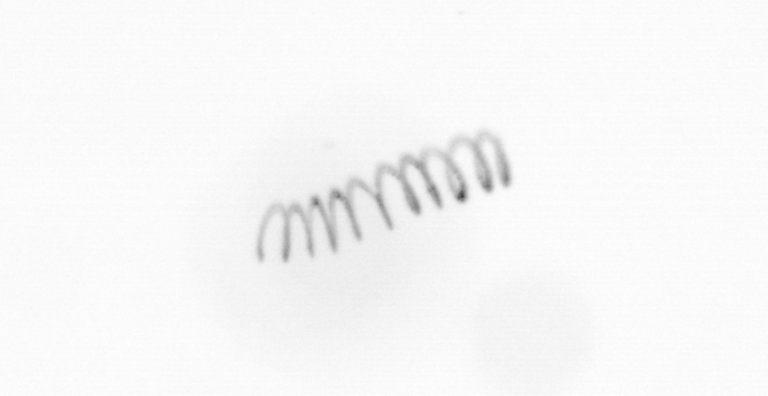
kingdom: Chromista
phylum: Ochrophyta
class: Bacillariophyceae
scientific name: Bacillariophyceae
